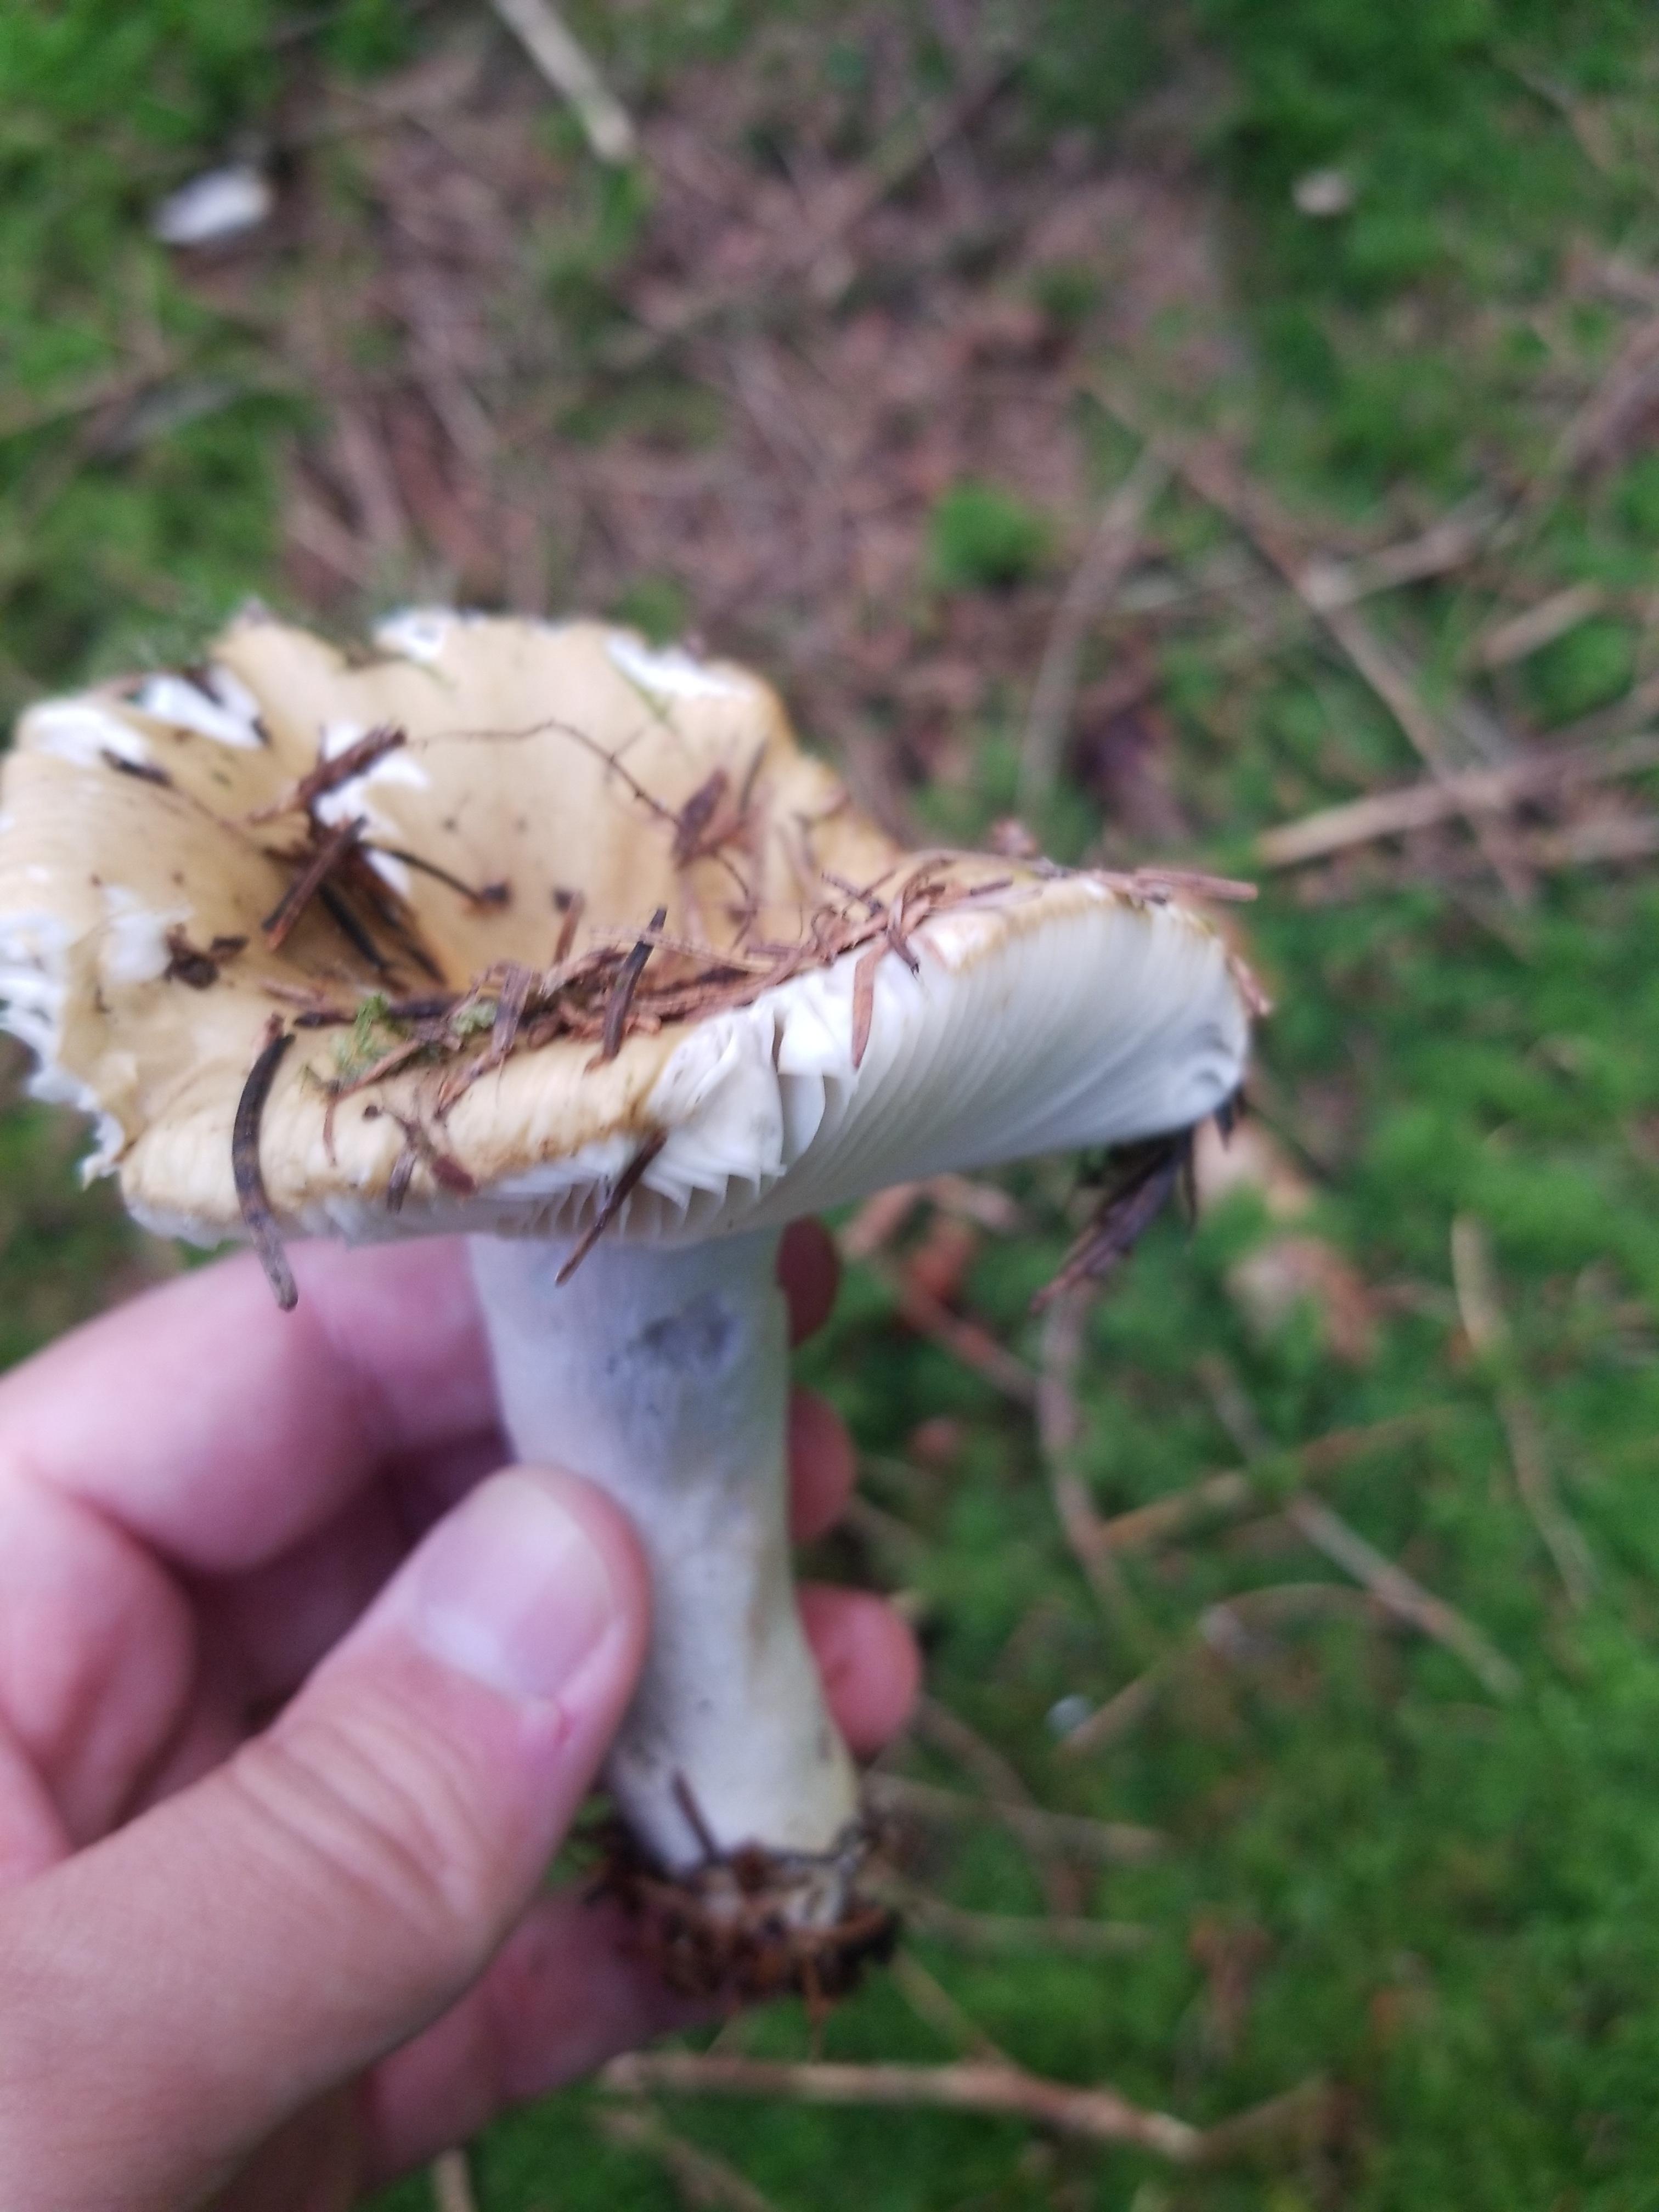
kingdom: Fungi
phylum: Basidiomycota
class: Agaricomycetes
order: Russulales
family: Russulaceae
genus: Russula
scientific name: Russula ochroleuca
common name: okkergul skørhat
